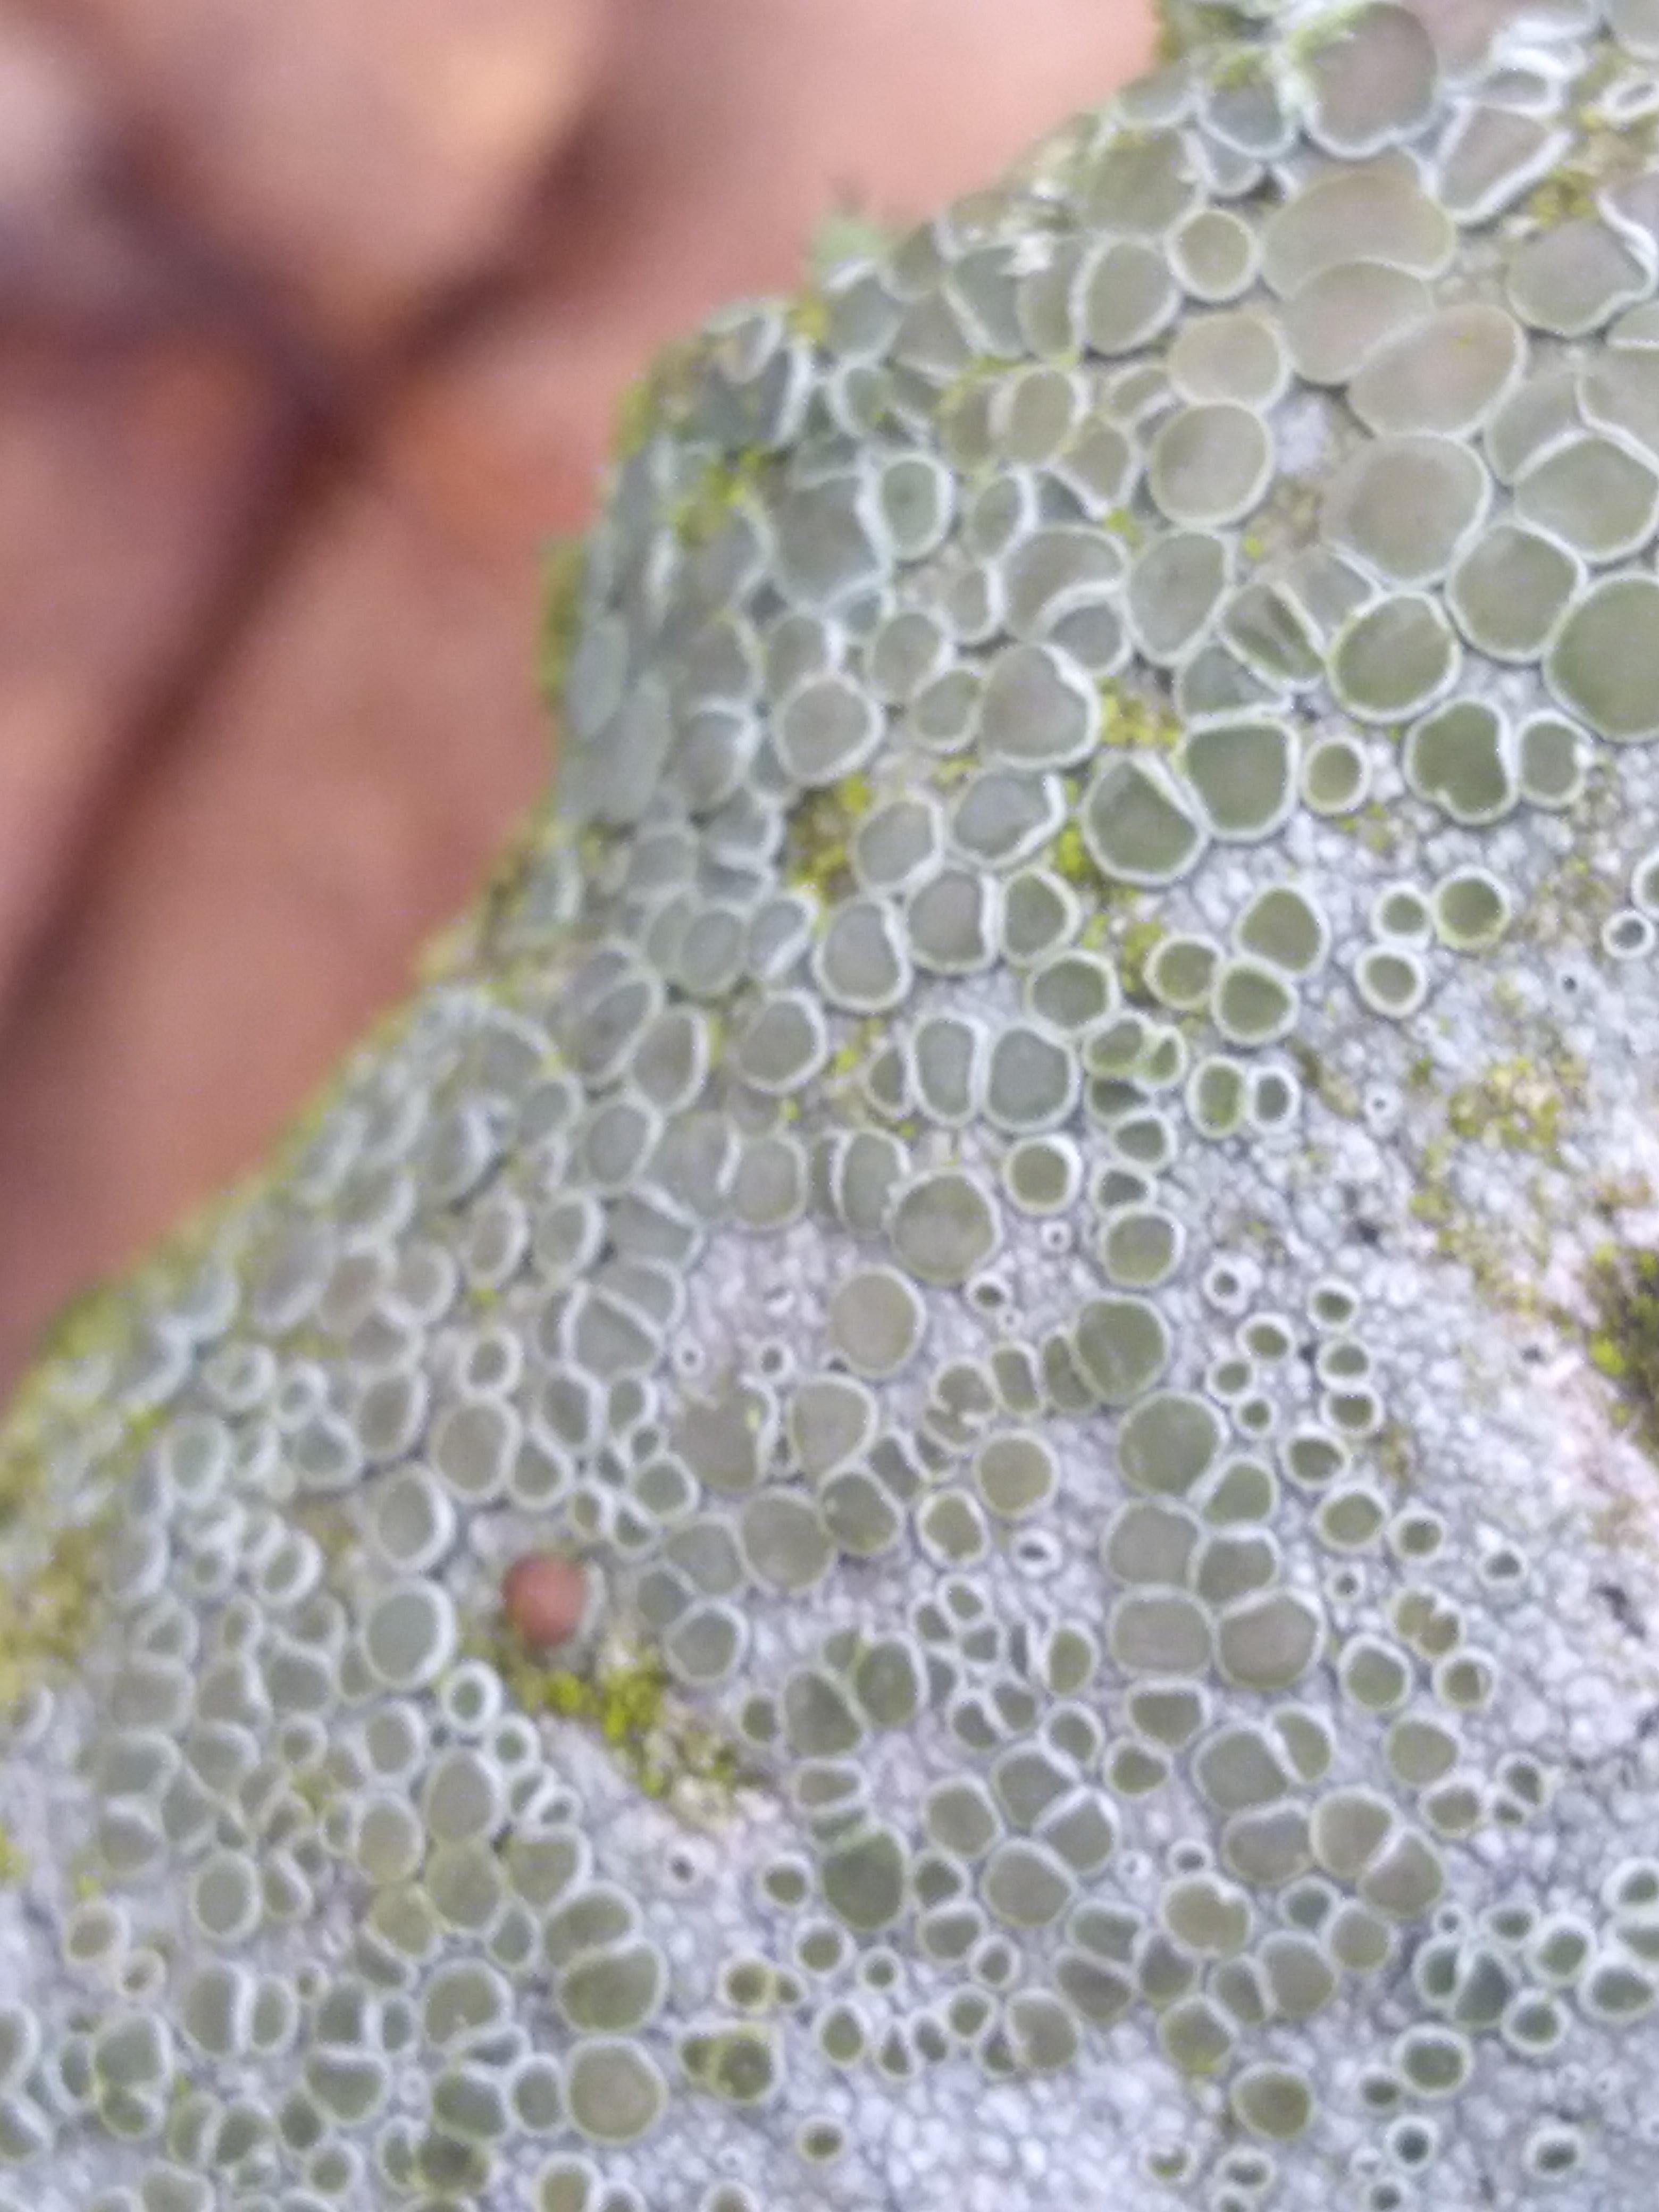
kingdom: Fungi
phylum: Ascomycota
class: Lecanoromycetes
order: Lecanorales
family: Lecanoraceae
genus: Lecanora
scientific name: Lecanora chlarotera
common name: brun kantskivelav
